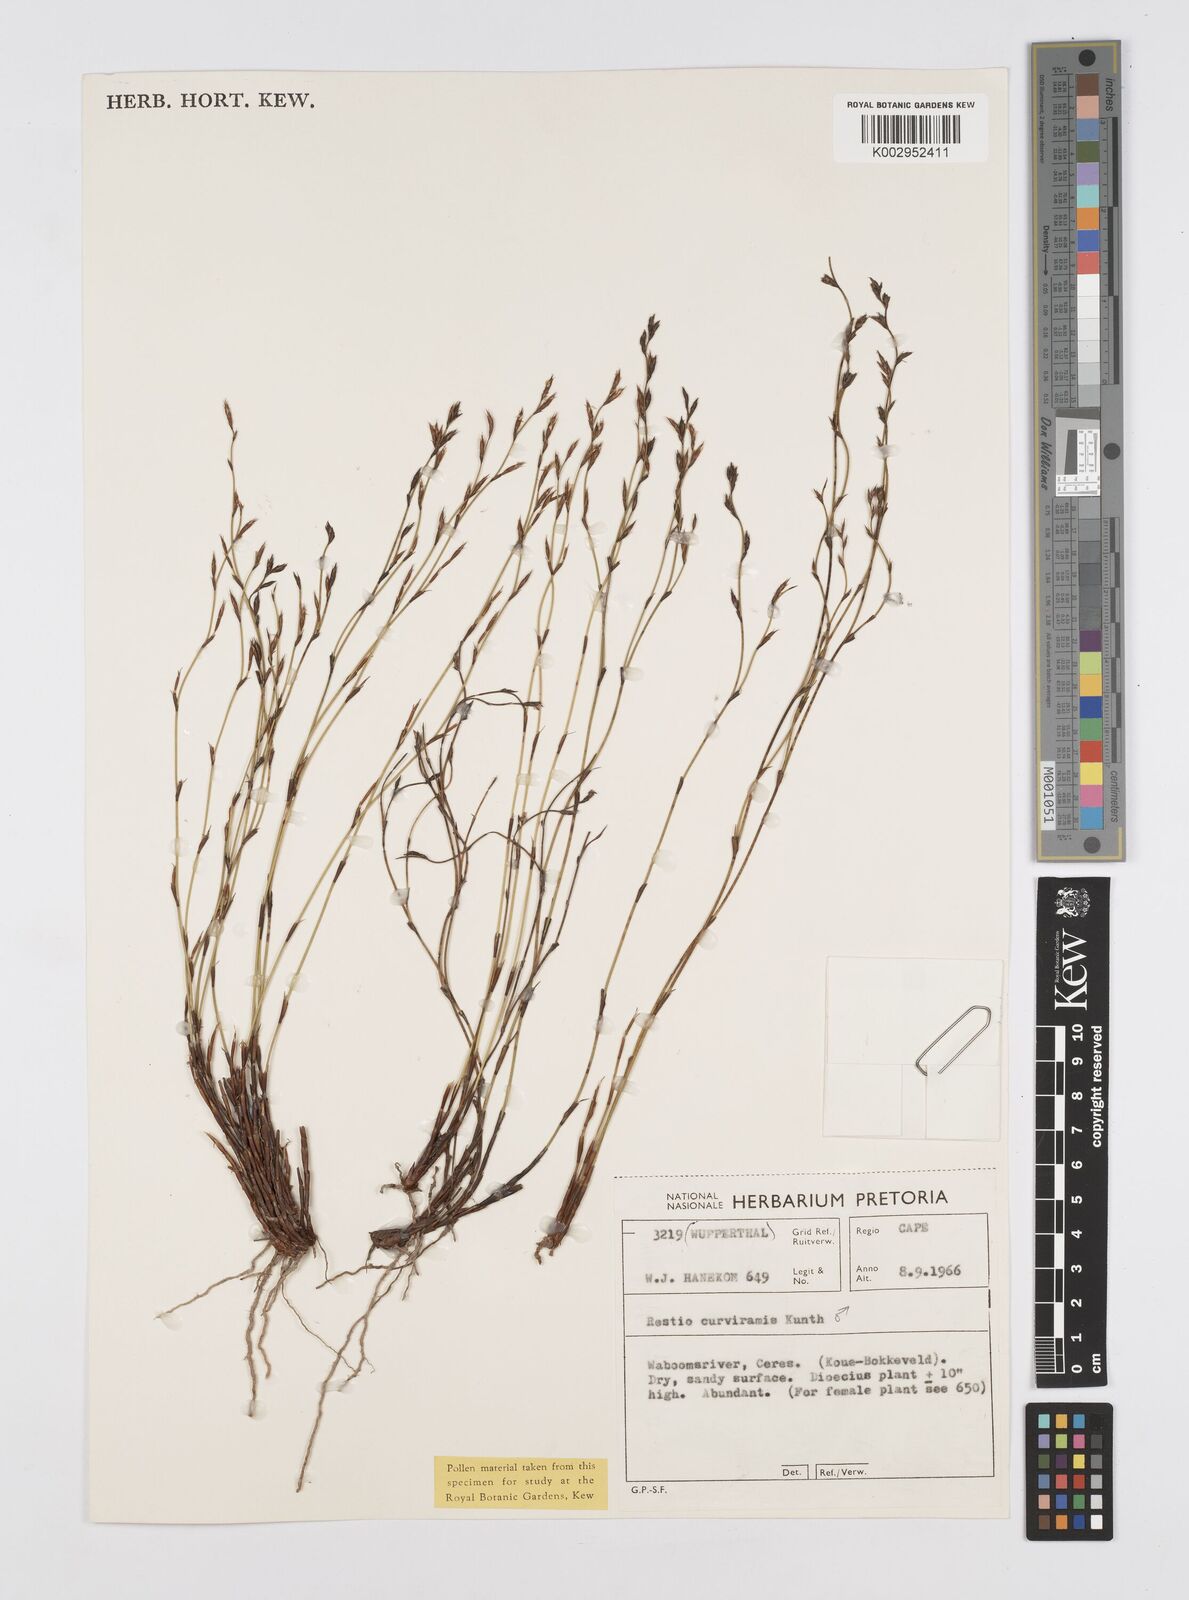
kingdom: Plantae
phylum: Tracheophyta
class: Liliopsida
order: Poales
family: Restionaceae
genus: Restio
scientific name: Restio curviramis
